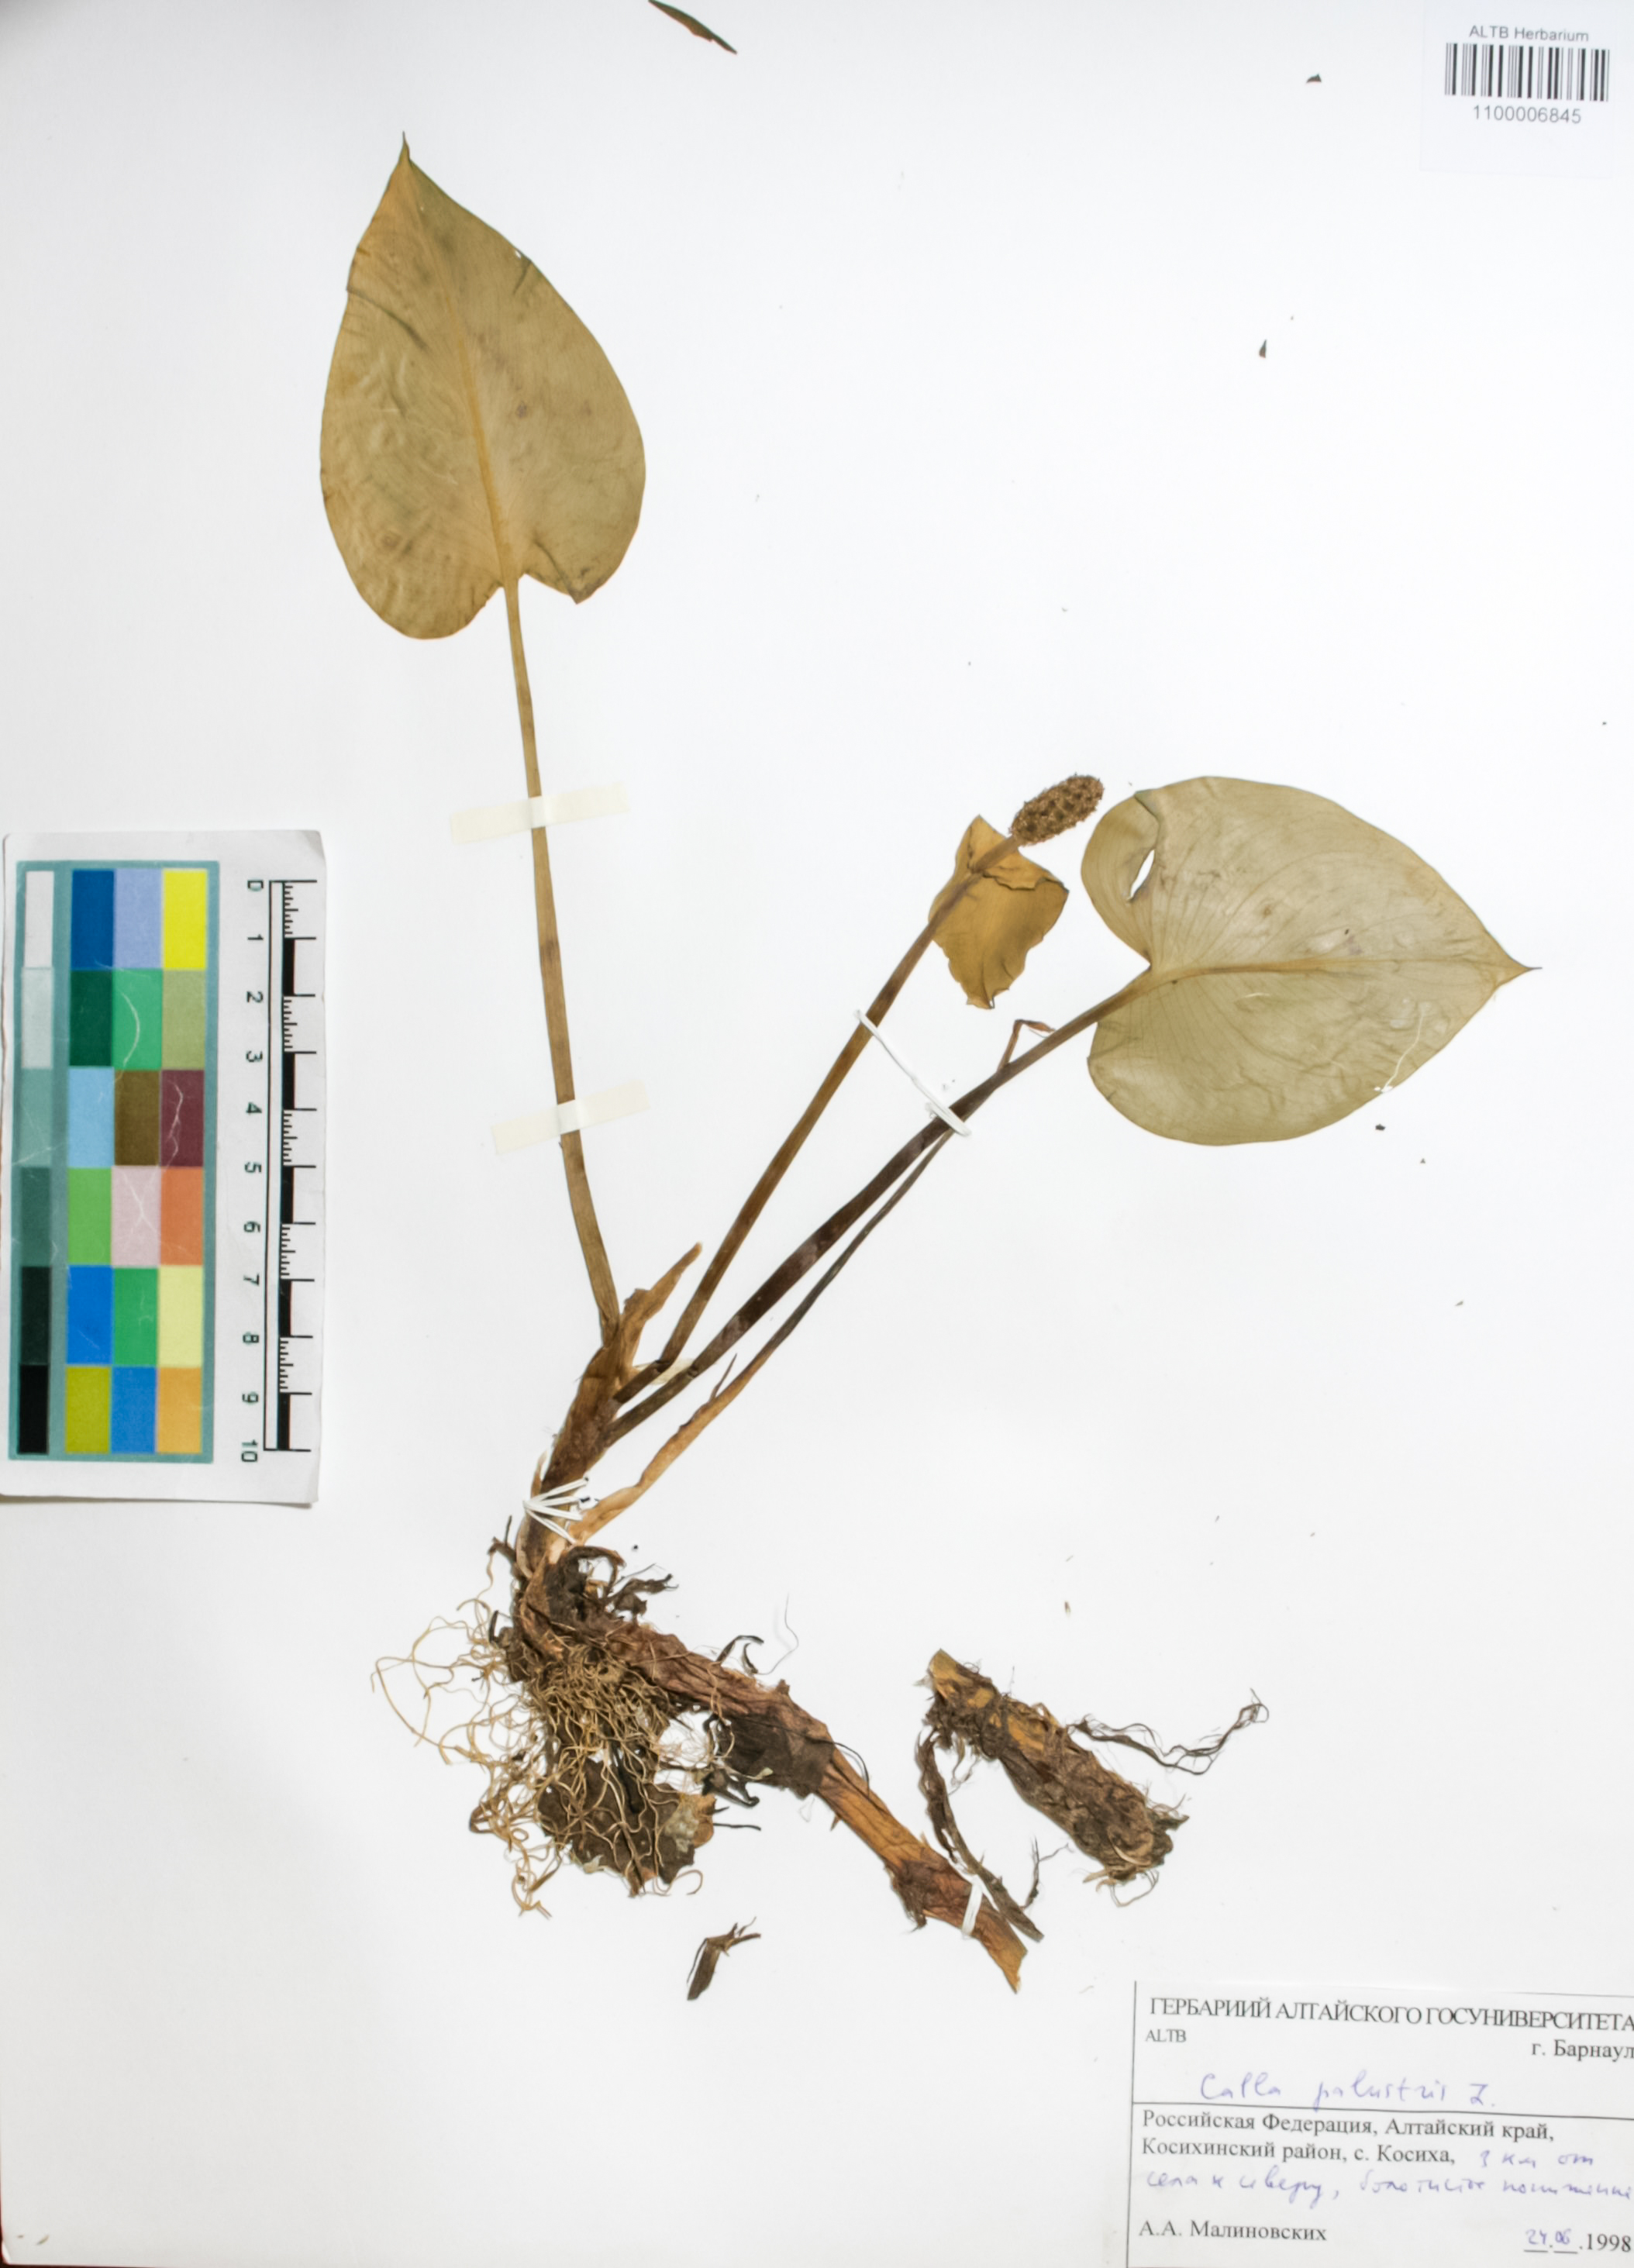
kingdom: Plantae
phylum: Tracheophyta
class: Liliopsida
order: Alismatales
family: Araceae
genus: Calla
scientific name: Calla palustris
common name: Bog arum
